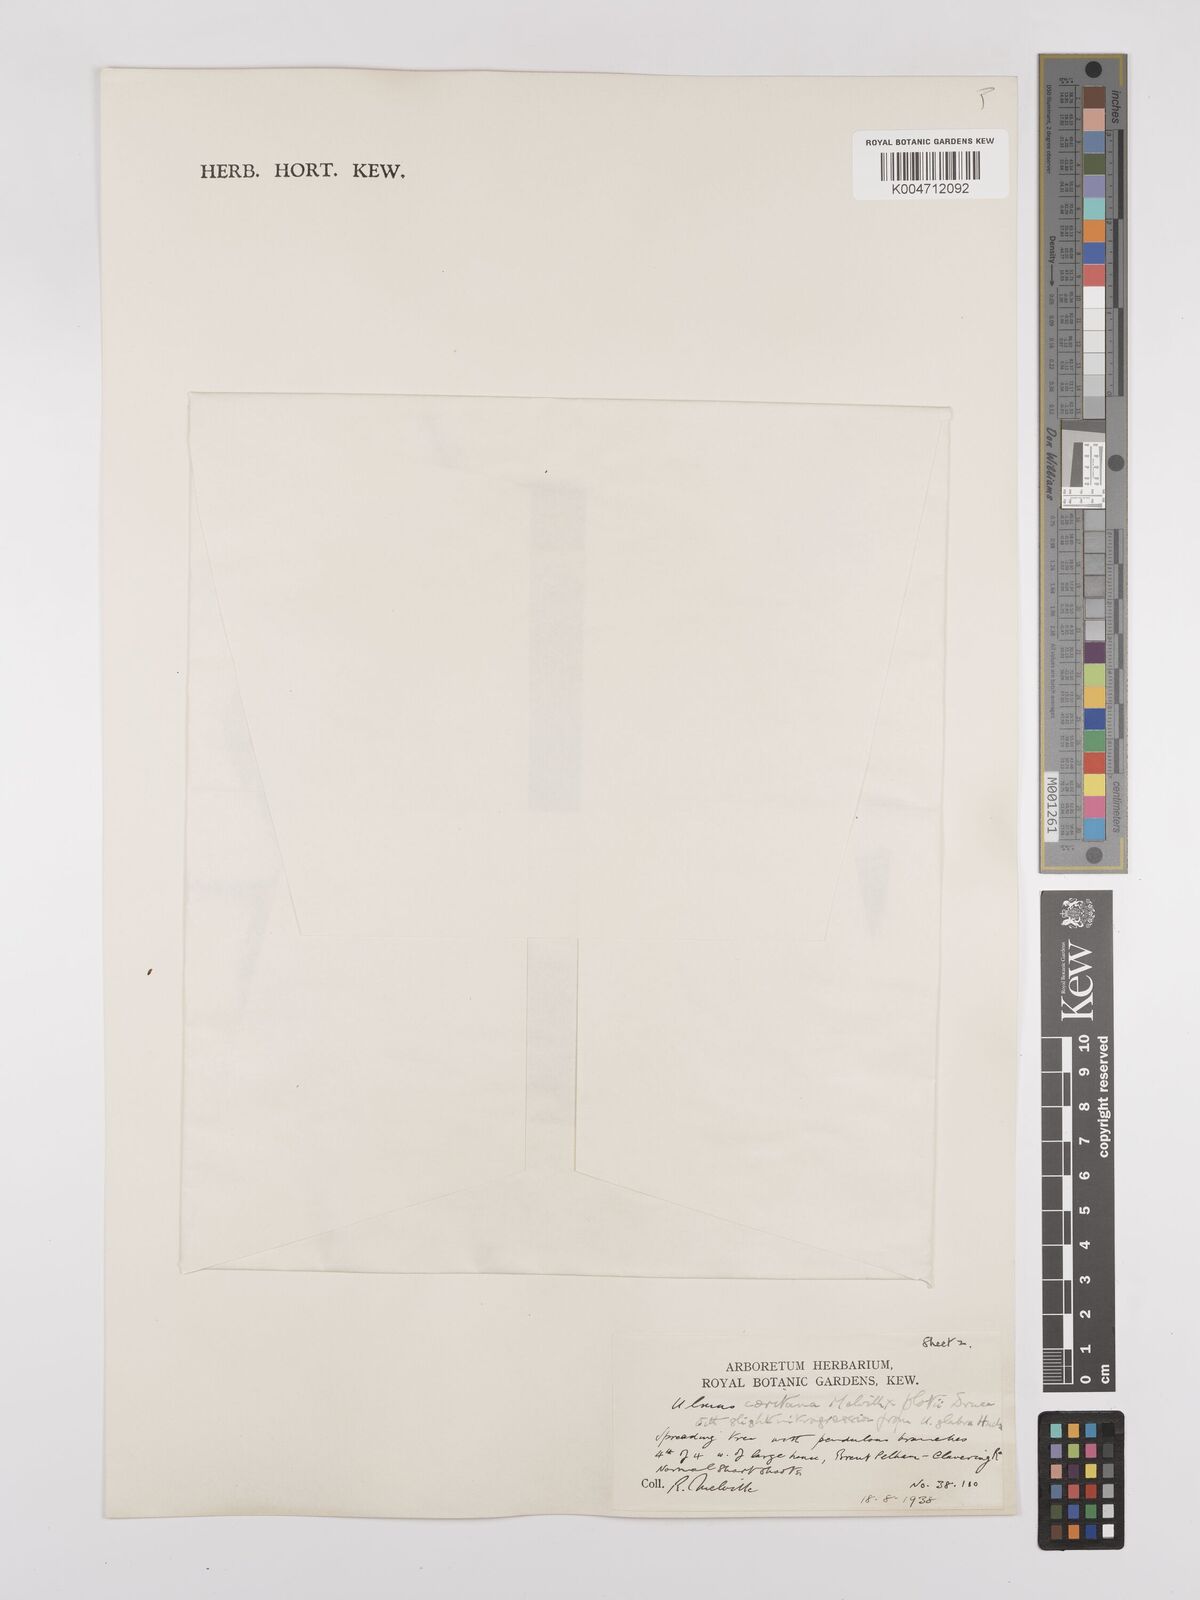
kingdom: Plantae
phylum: Tracheophyta
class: Magnoliopsida
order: Rosales
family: Ulmaceae
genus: Ulmus
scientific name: Ulmus minor
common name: Small-leaved elm
